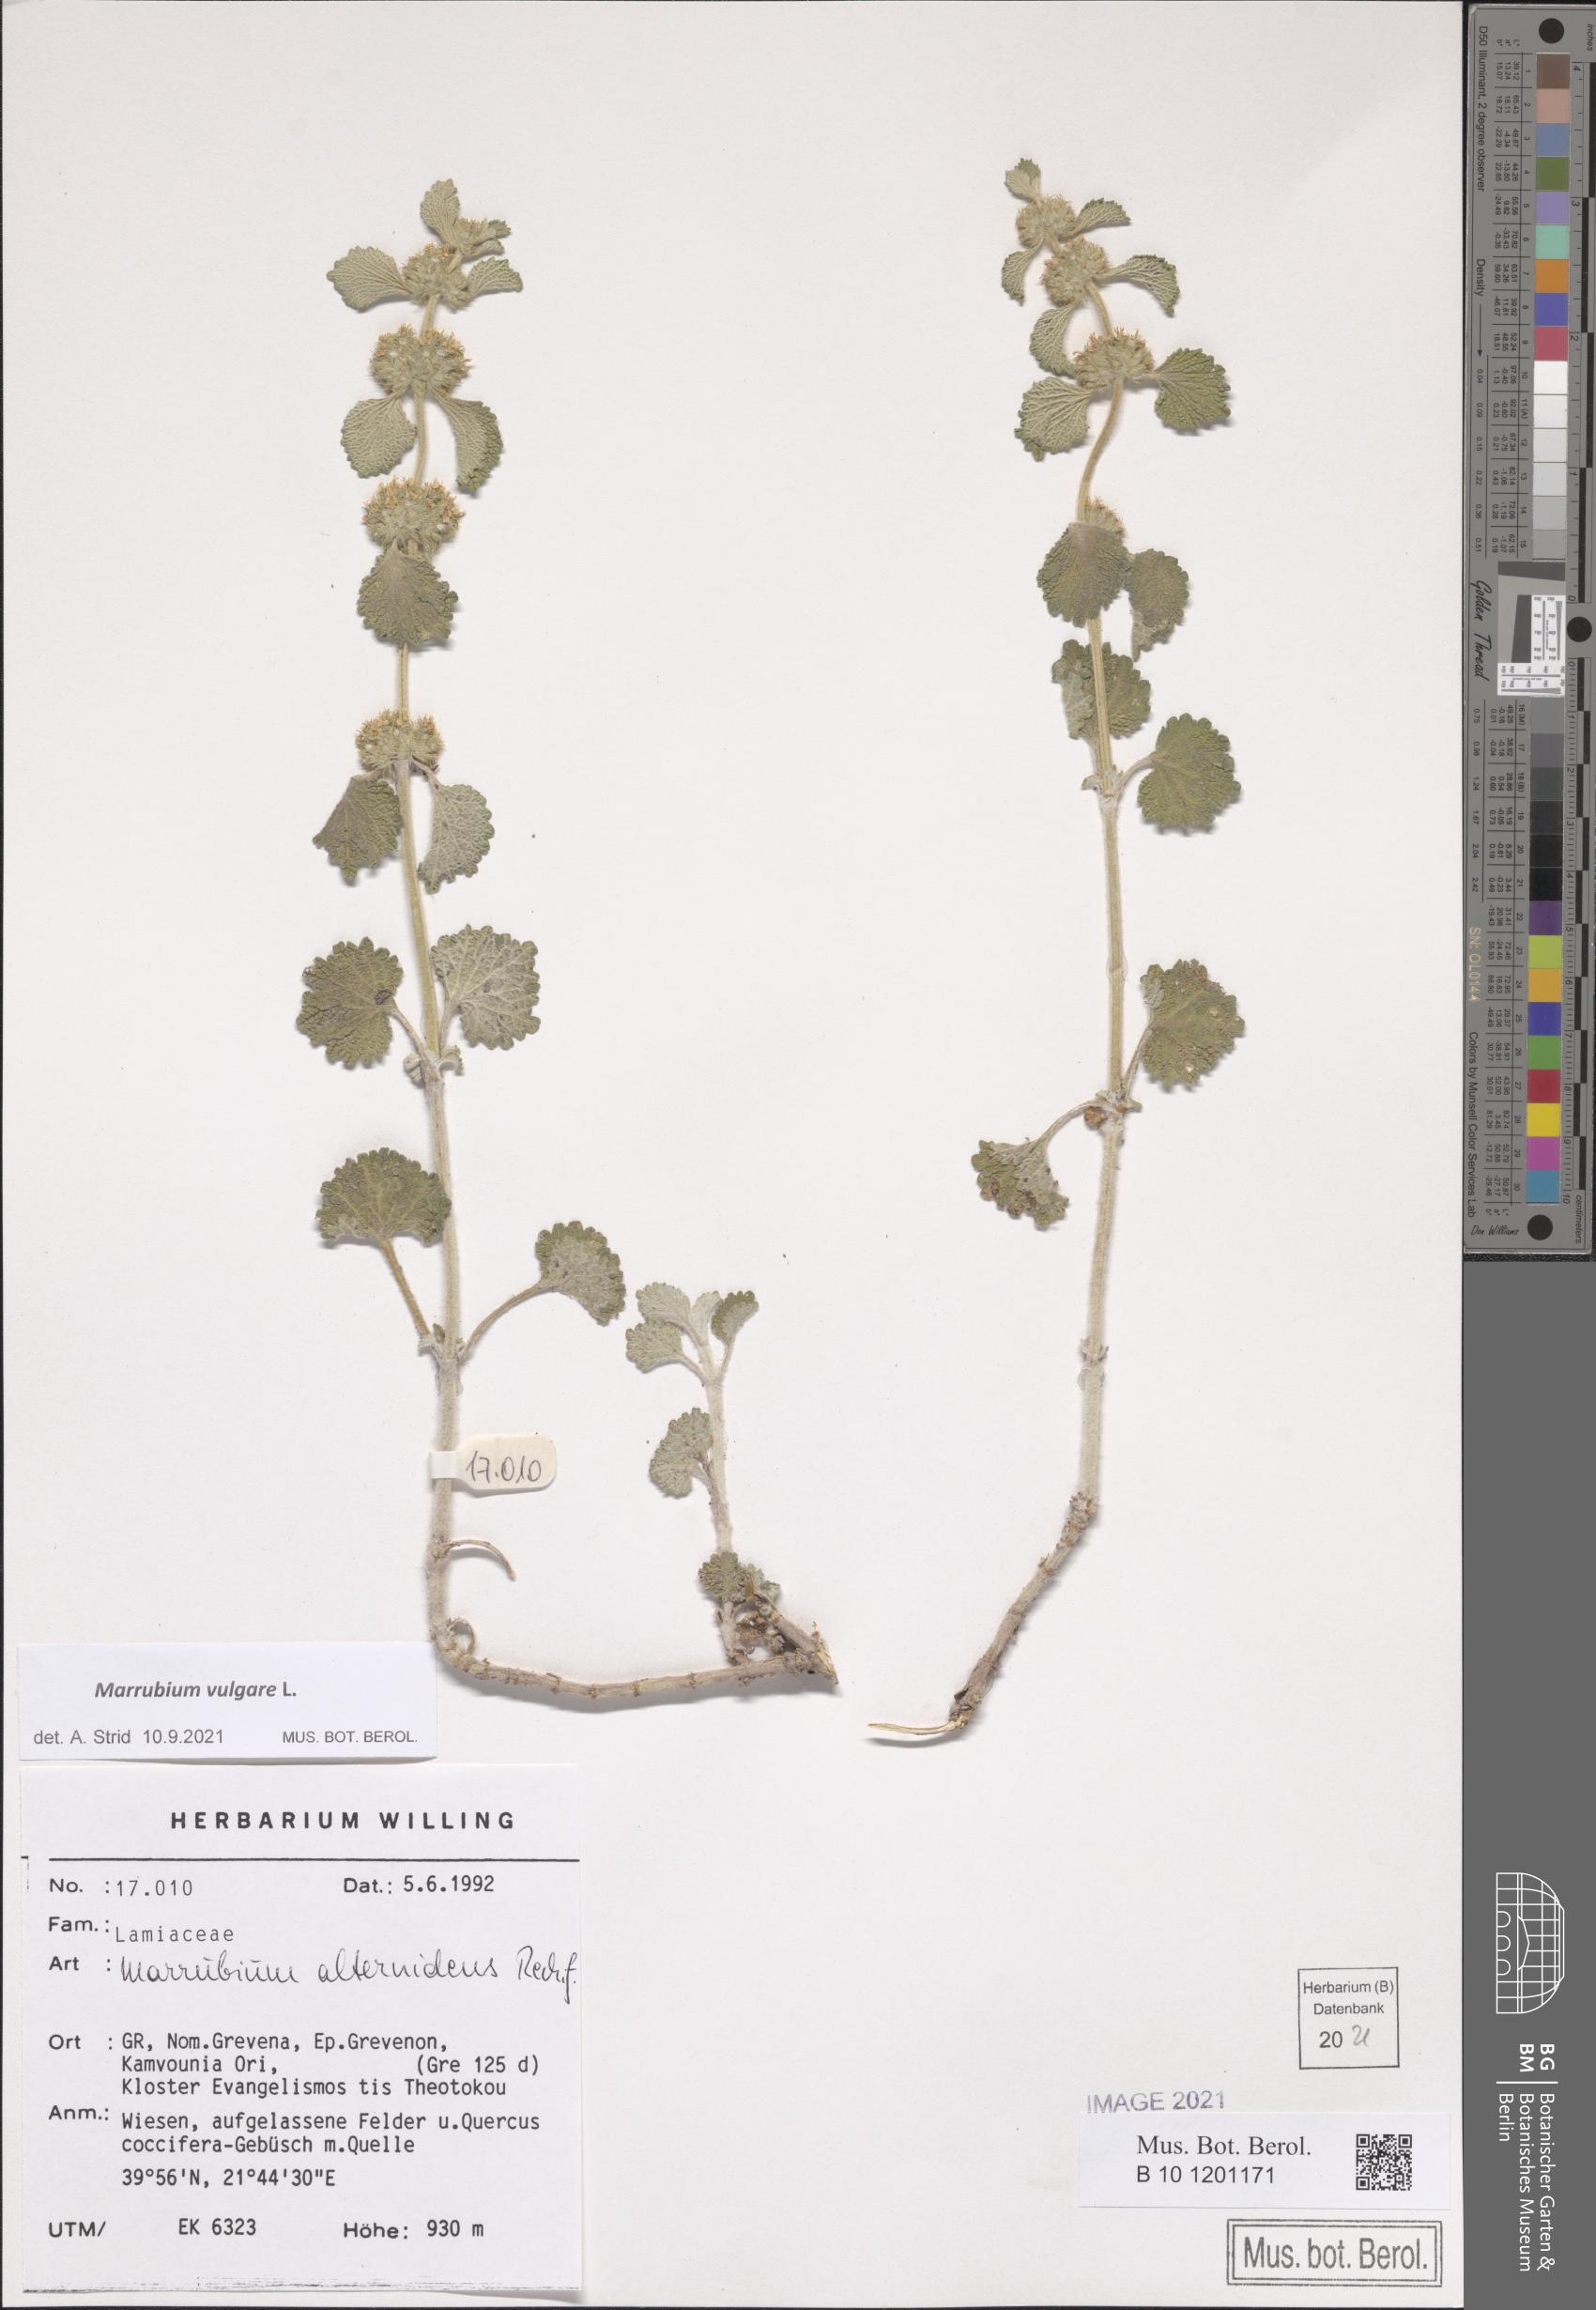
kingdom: Plantae
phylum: Tracheophyta
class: Magnoliopsida
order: Lamiales
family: Lamiaceae
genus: Marrubium
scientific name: Marrubium vulgare
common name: Horehound
